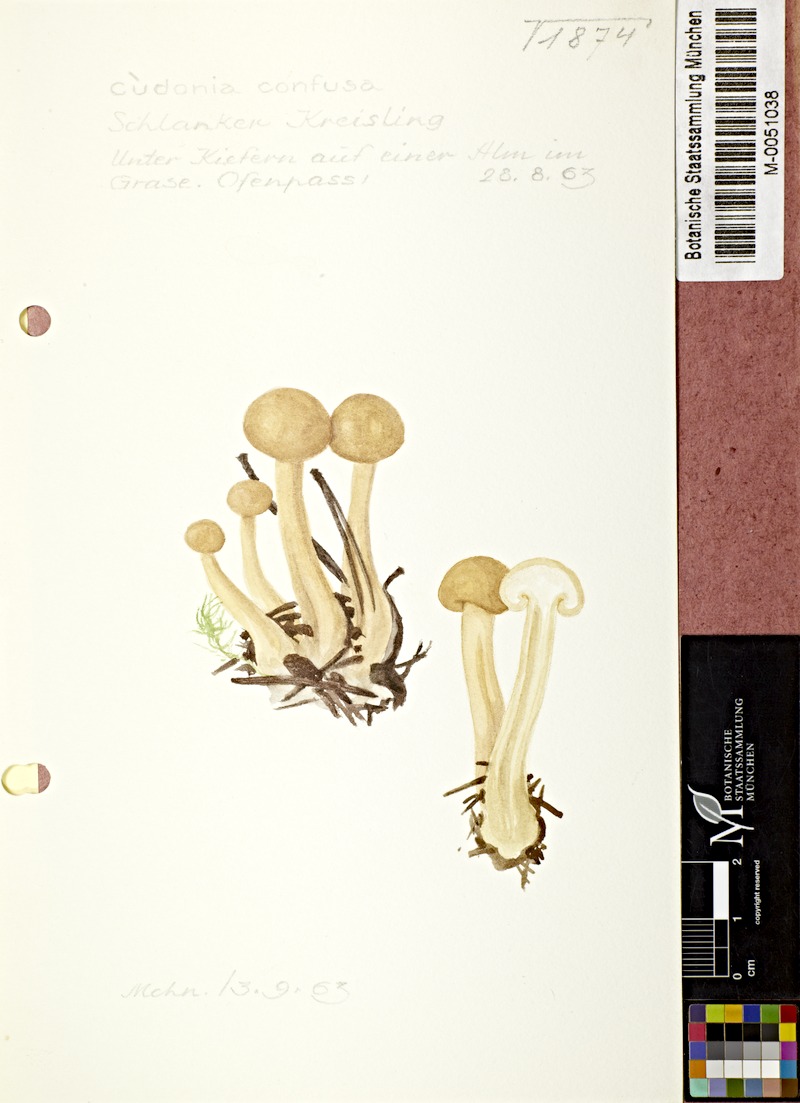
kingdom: Fungi
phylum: Ascomycota
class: Leotiomycetes
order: Rhytismatales
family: Cudoniaceae
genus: Cudonia
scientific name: Cudonia confusa
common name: Cinnamon jellybaby
